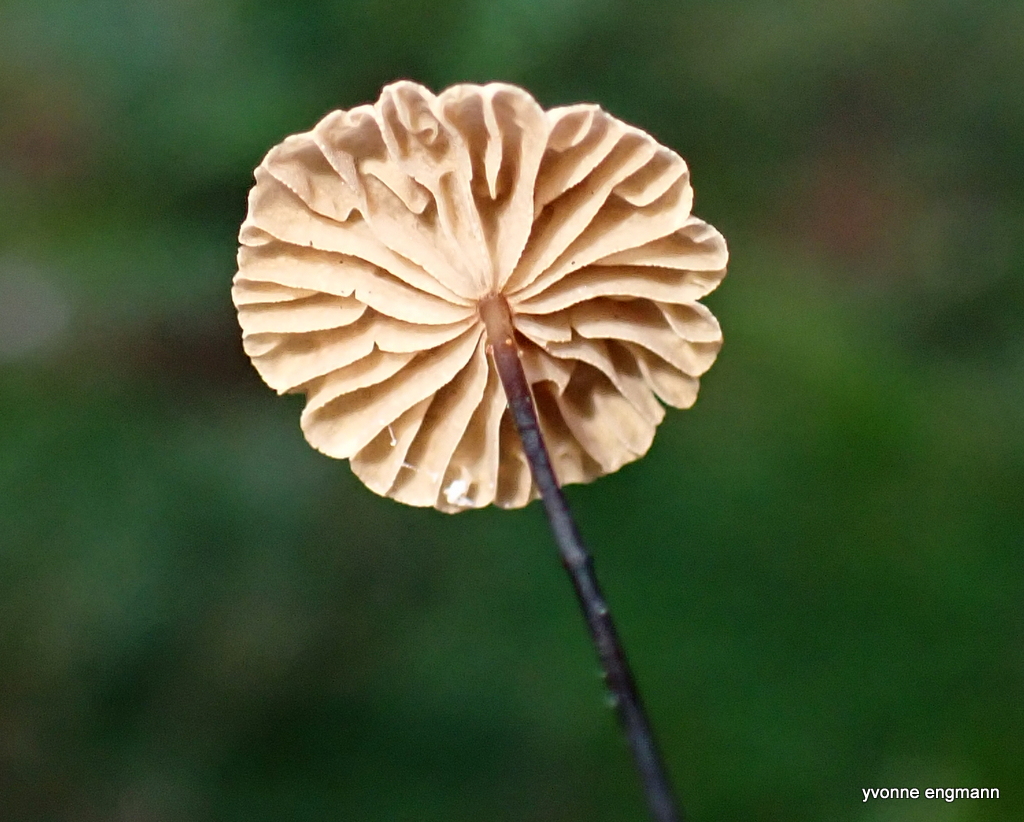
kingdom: Fungi
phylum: Basidiomycota
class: Agaricomycetes
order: Agaricales
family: Omphalotaceae
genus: Paragymnopus
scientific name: Paragymnopus perforans
